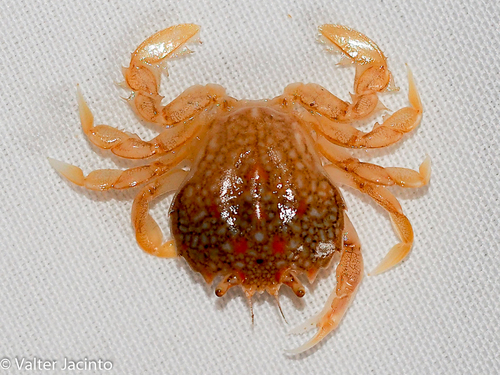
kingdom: Animalia
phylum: Arthropoda
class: Malacostraca
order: Decapoda
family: Carcinidae
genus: Portumnus
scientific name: Portumnus latipes
